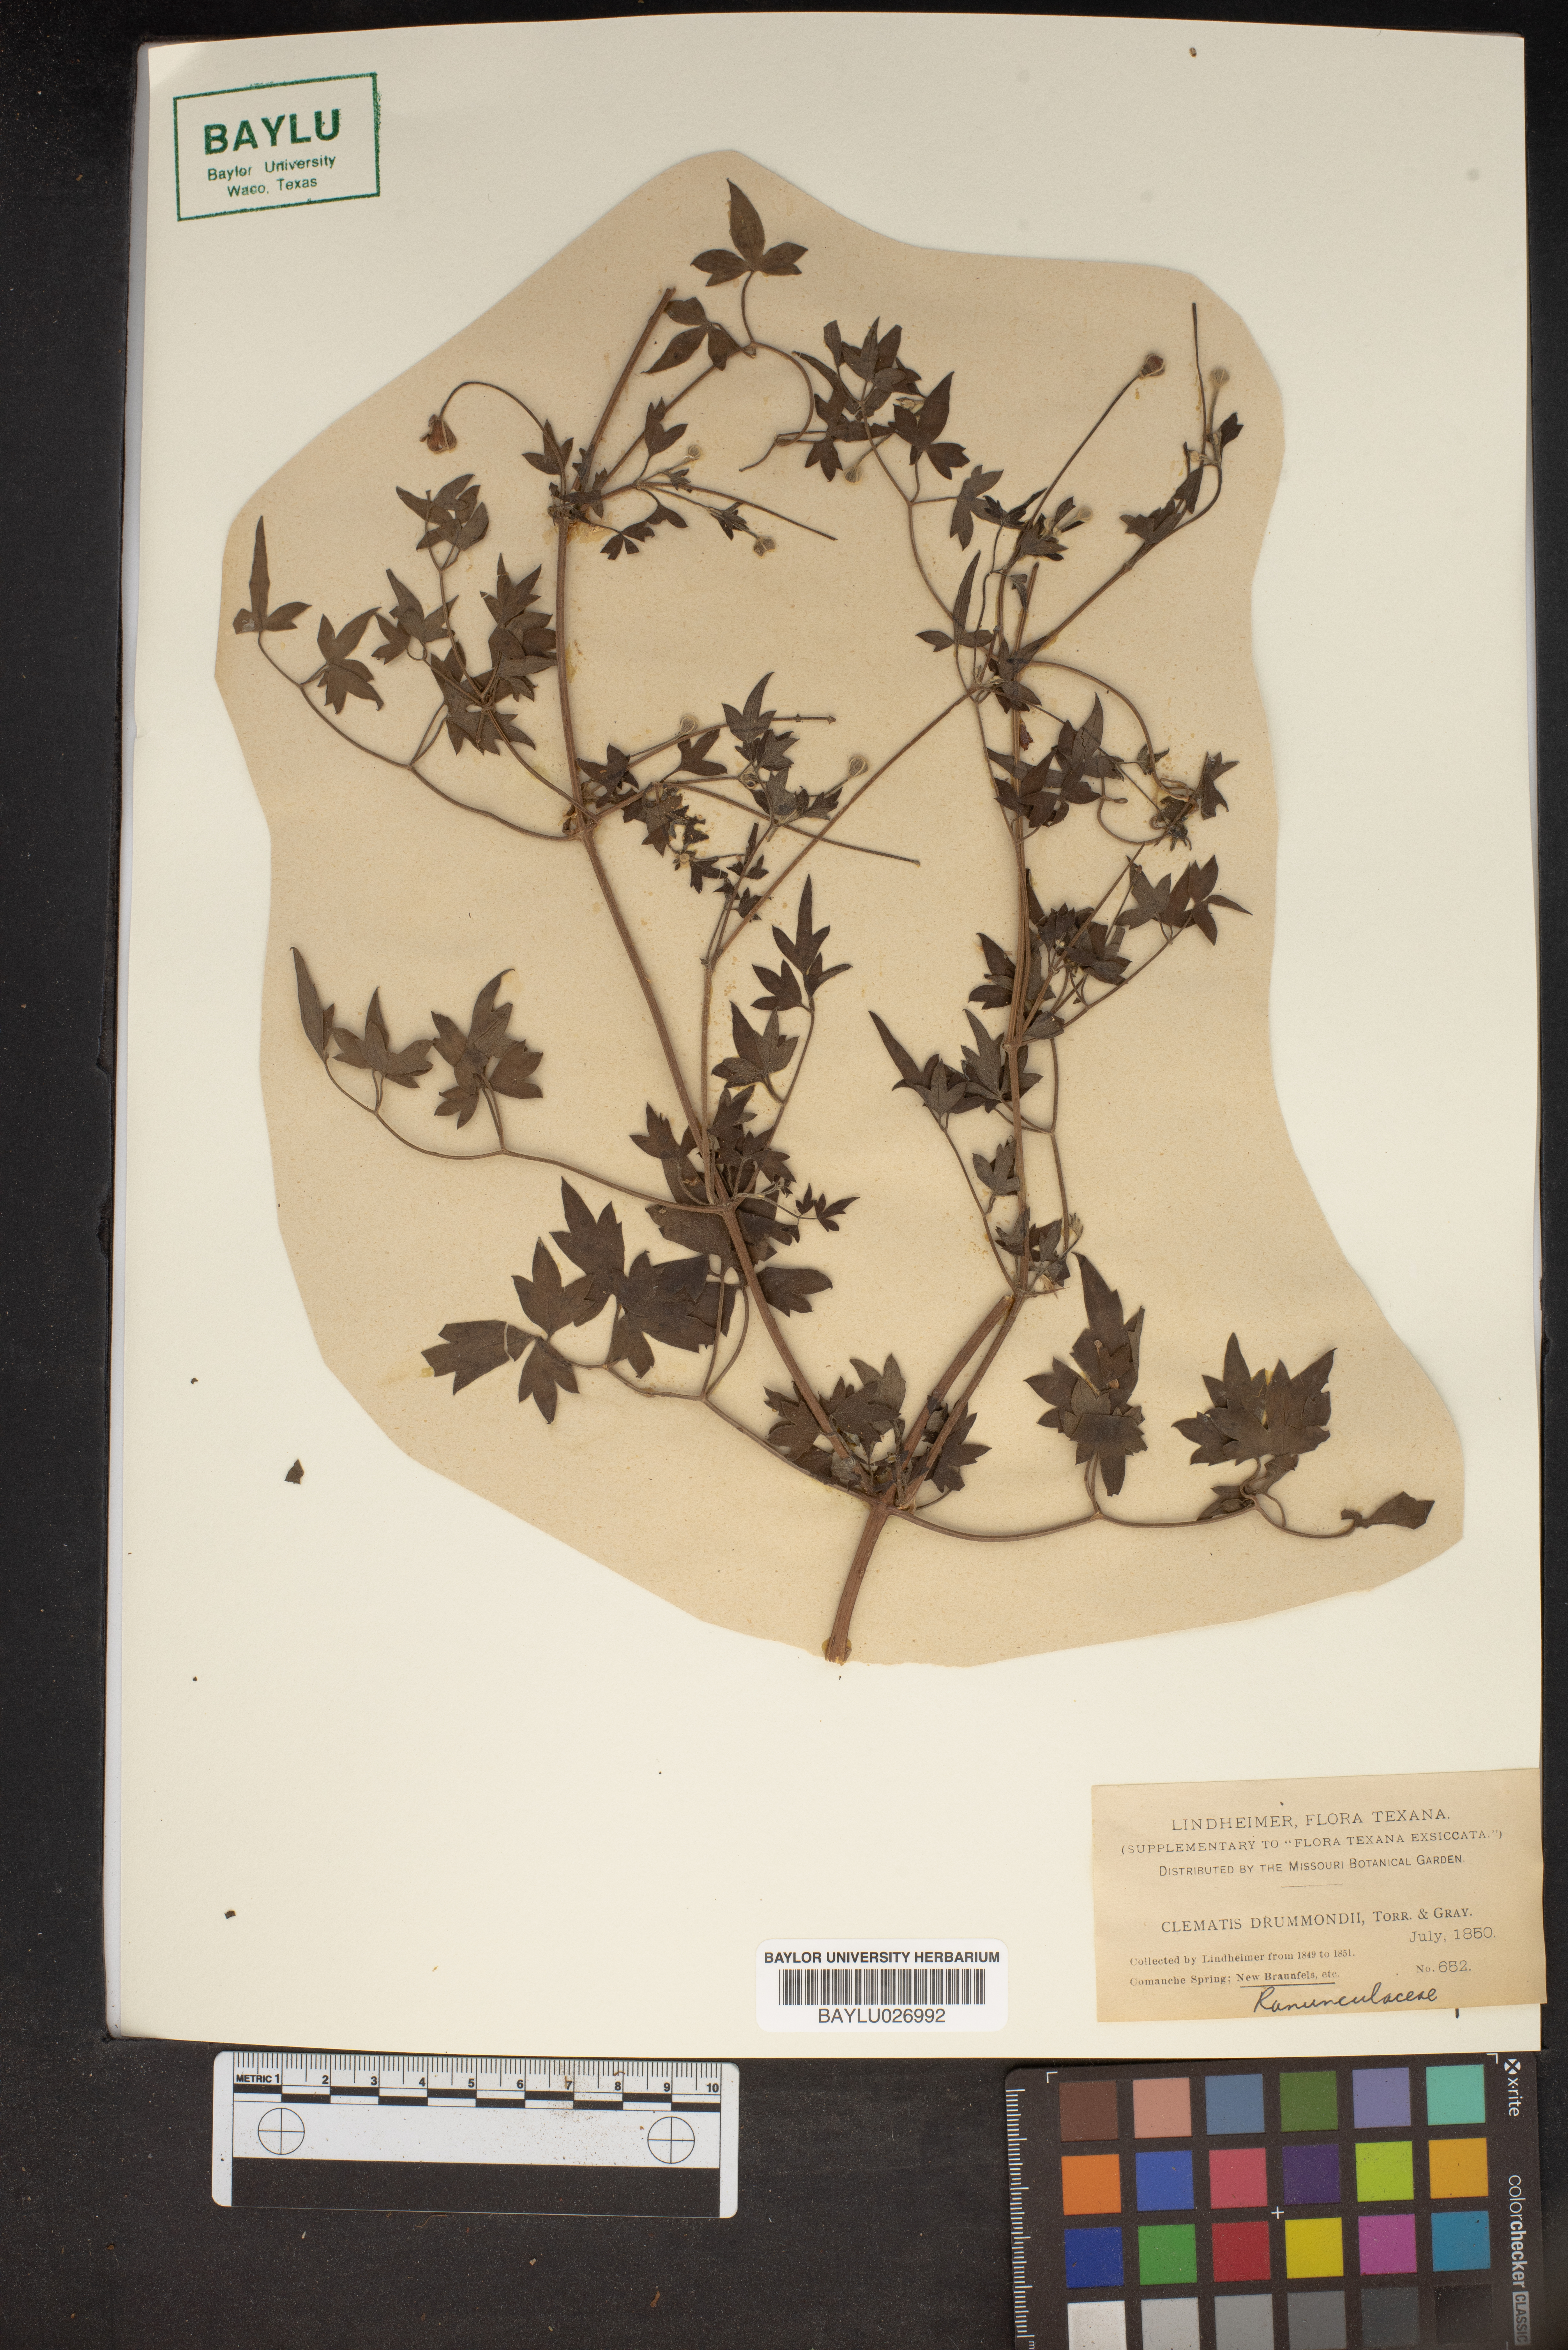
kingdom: Plantae
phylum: Tracheophyta
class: Magnoliopsida
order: Ranunculales
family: Ranunculaceae
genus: Clematis
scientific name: Clematis drummondii
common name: Texas virgin's bower
